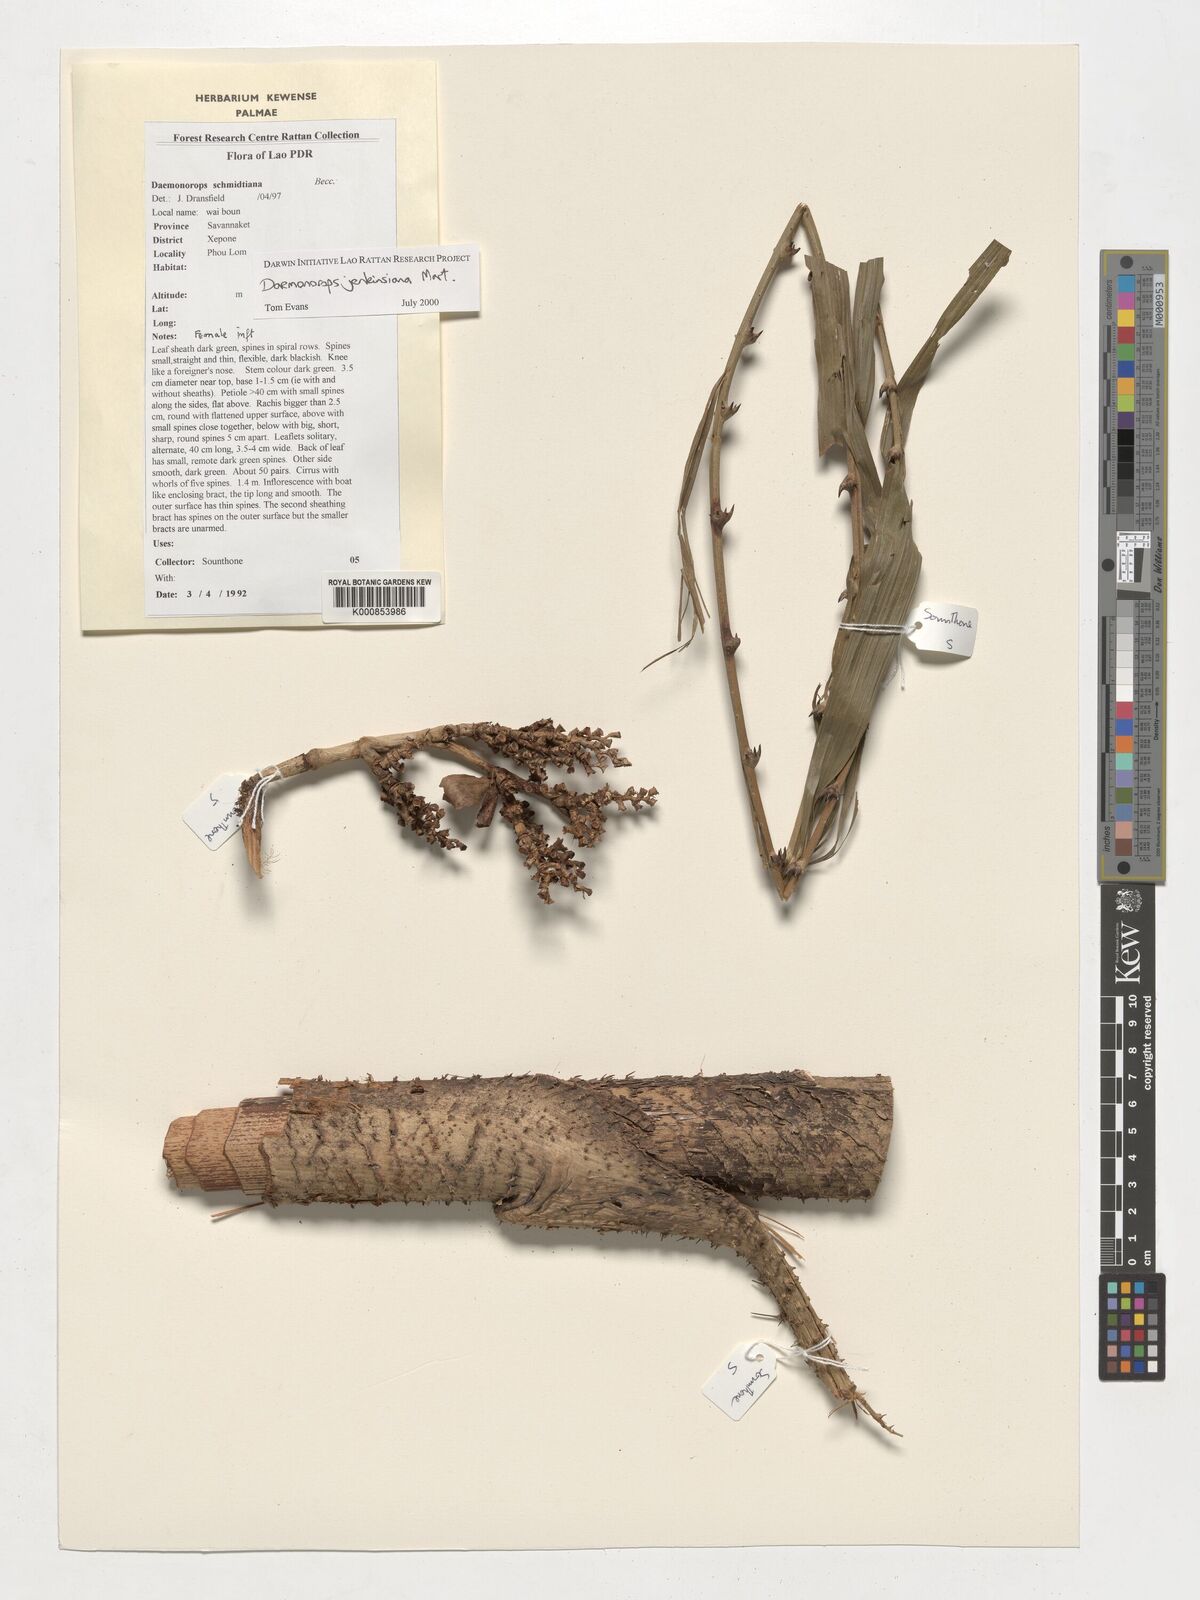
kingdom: Plantae
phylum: Tracheophyta
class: Liliopsida
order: Arecales
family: Arecaceae
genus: Calamus
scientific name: Calamus melanochaetes
